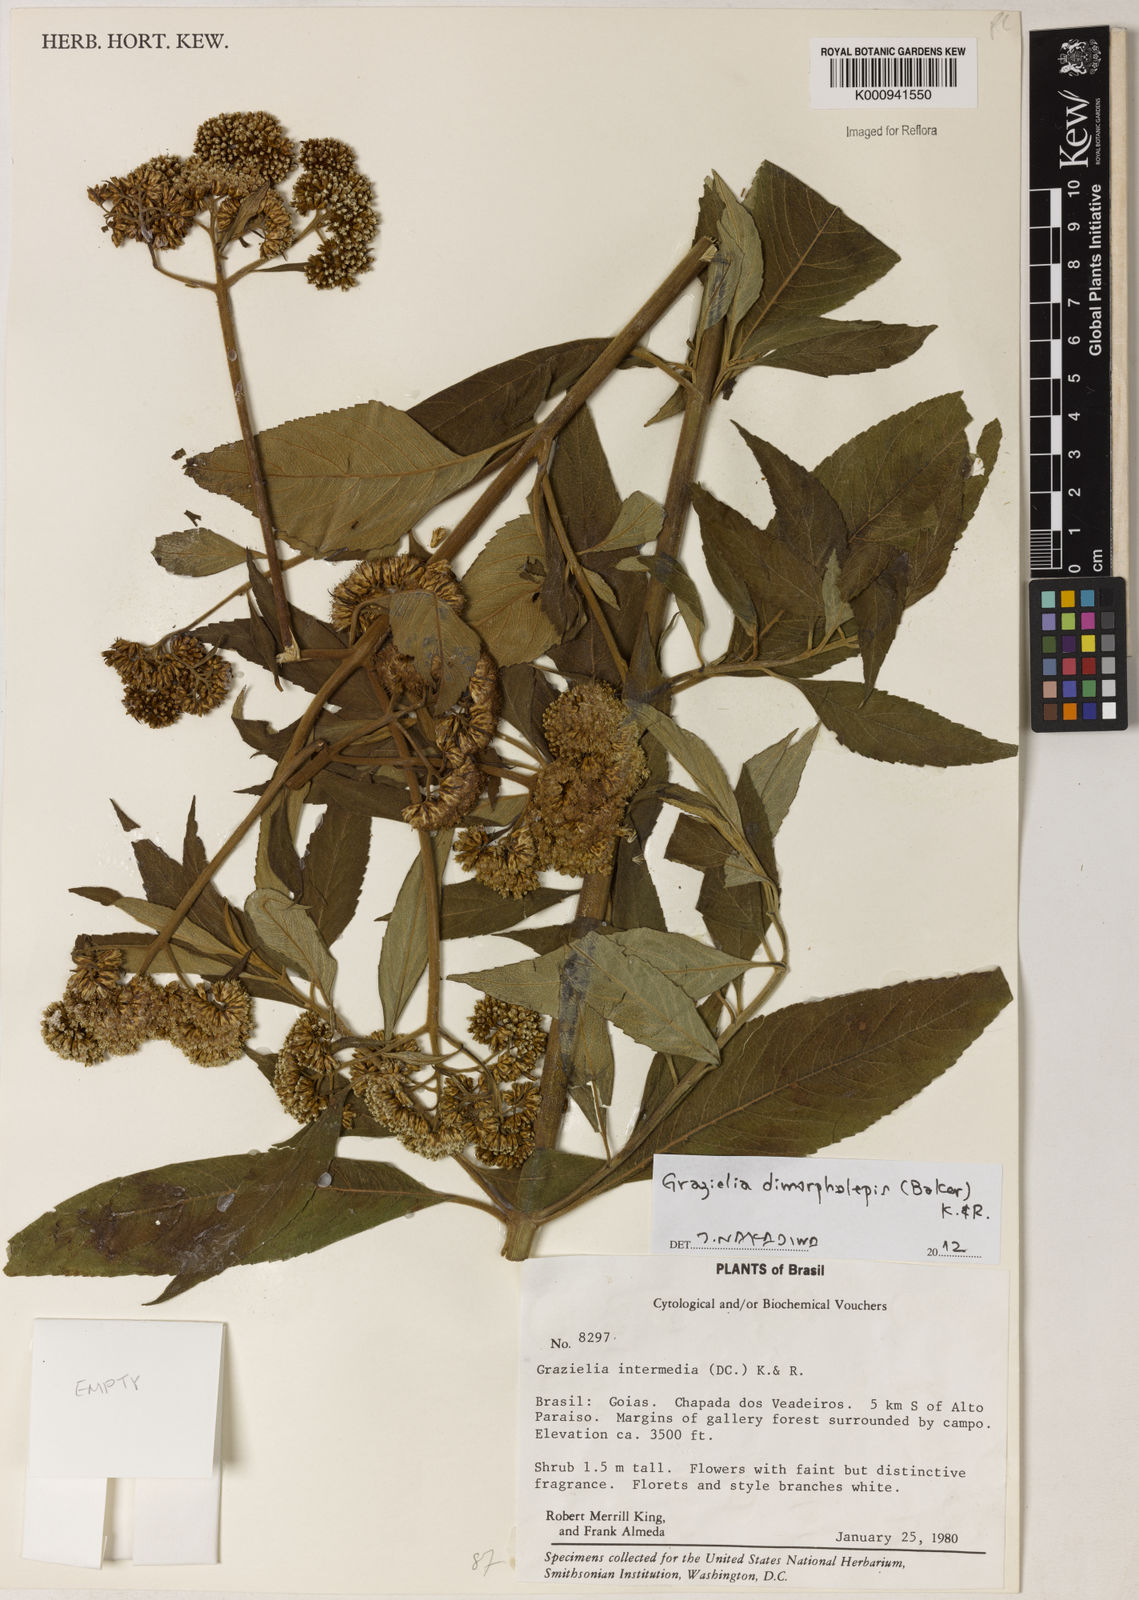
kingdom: Plantae
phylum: Tracheophyta
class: Magnoliopsida
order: Asterales
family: Asteraceae
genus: Grazielia
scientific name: Grazielia dimorpholepis
